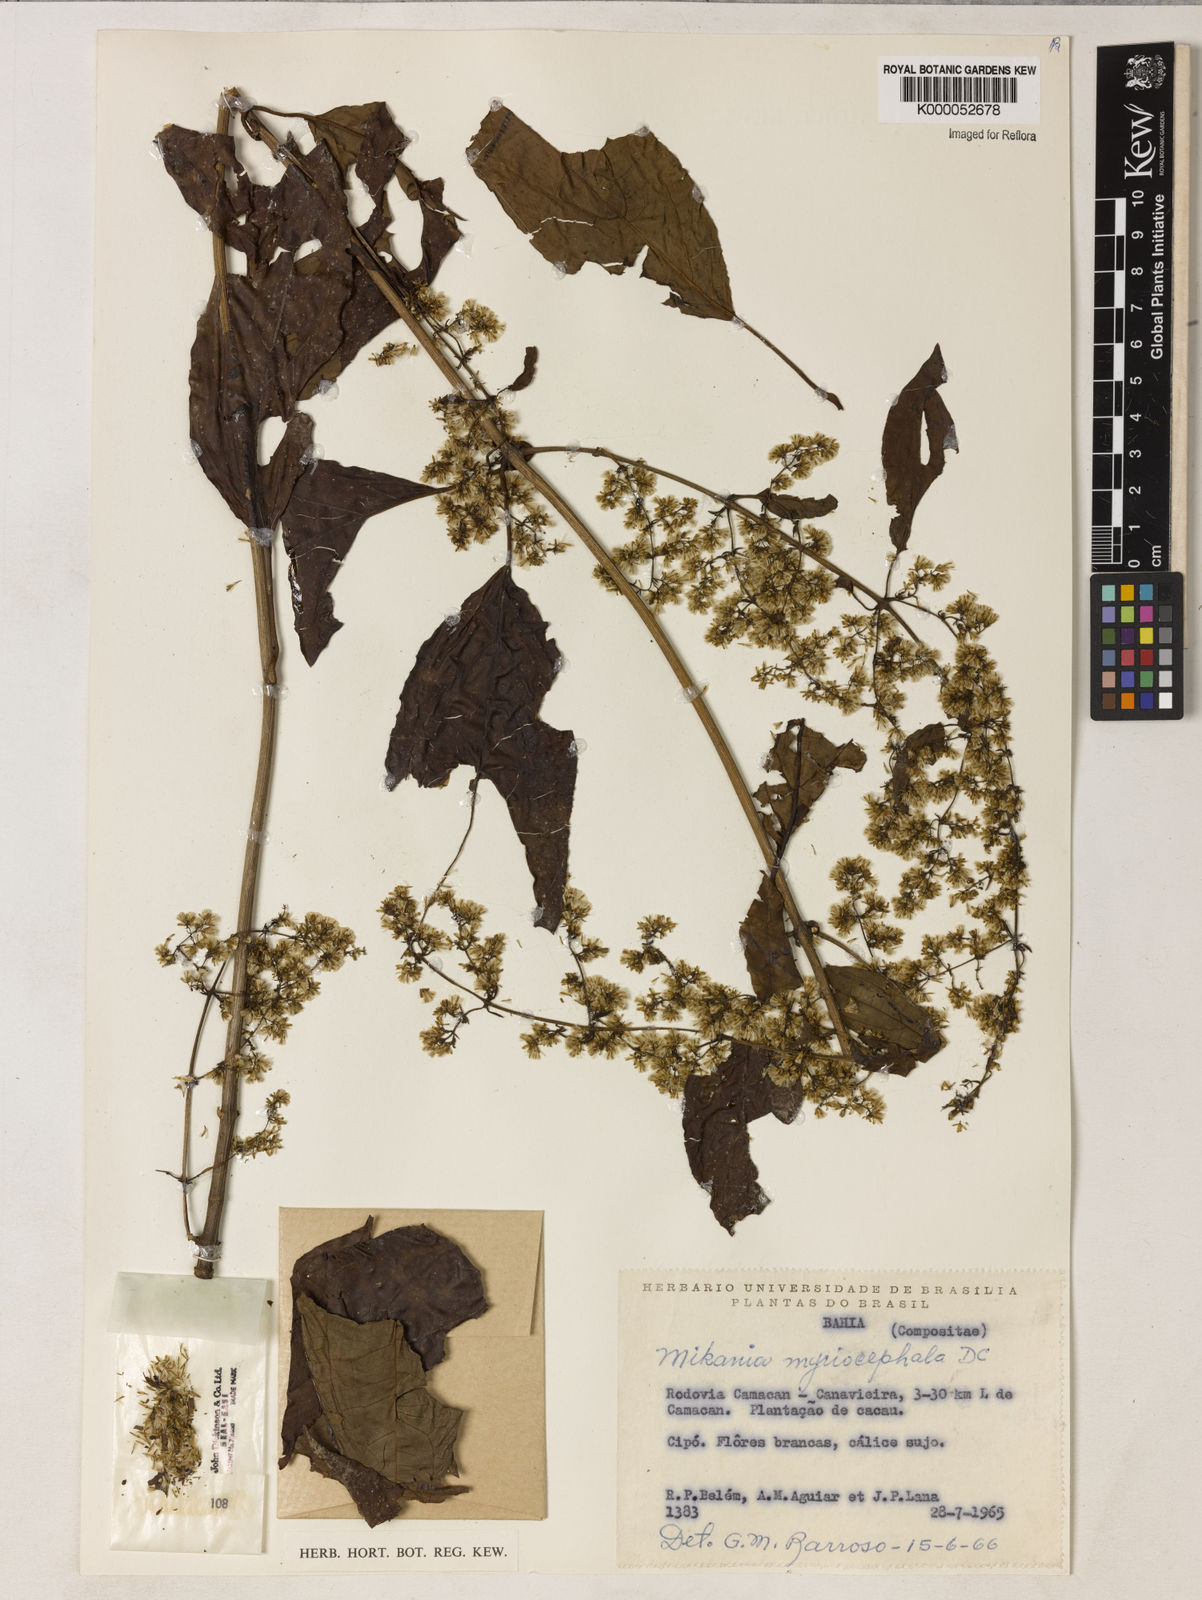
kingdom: Plantae
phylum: Tracheophyta
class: Magnoliopsida
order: Asterales
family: Asteraceae
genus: Mikania
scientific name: Mikania myriocephala
